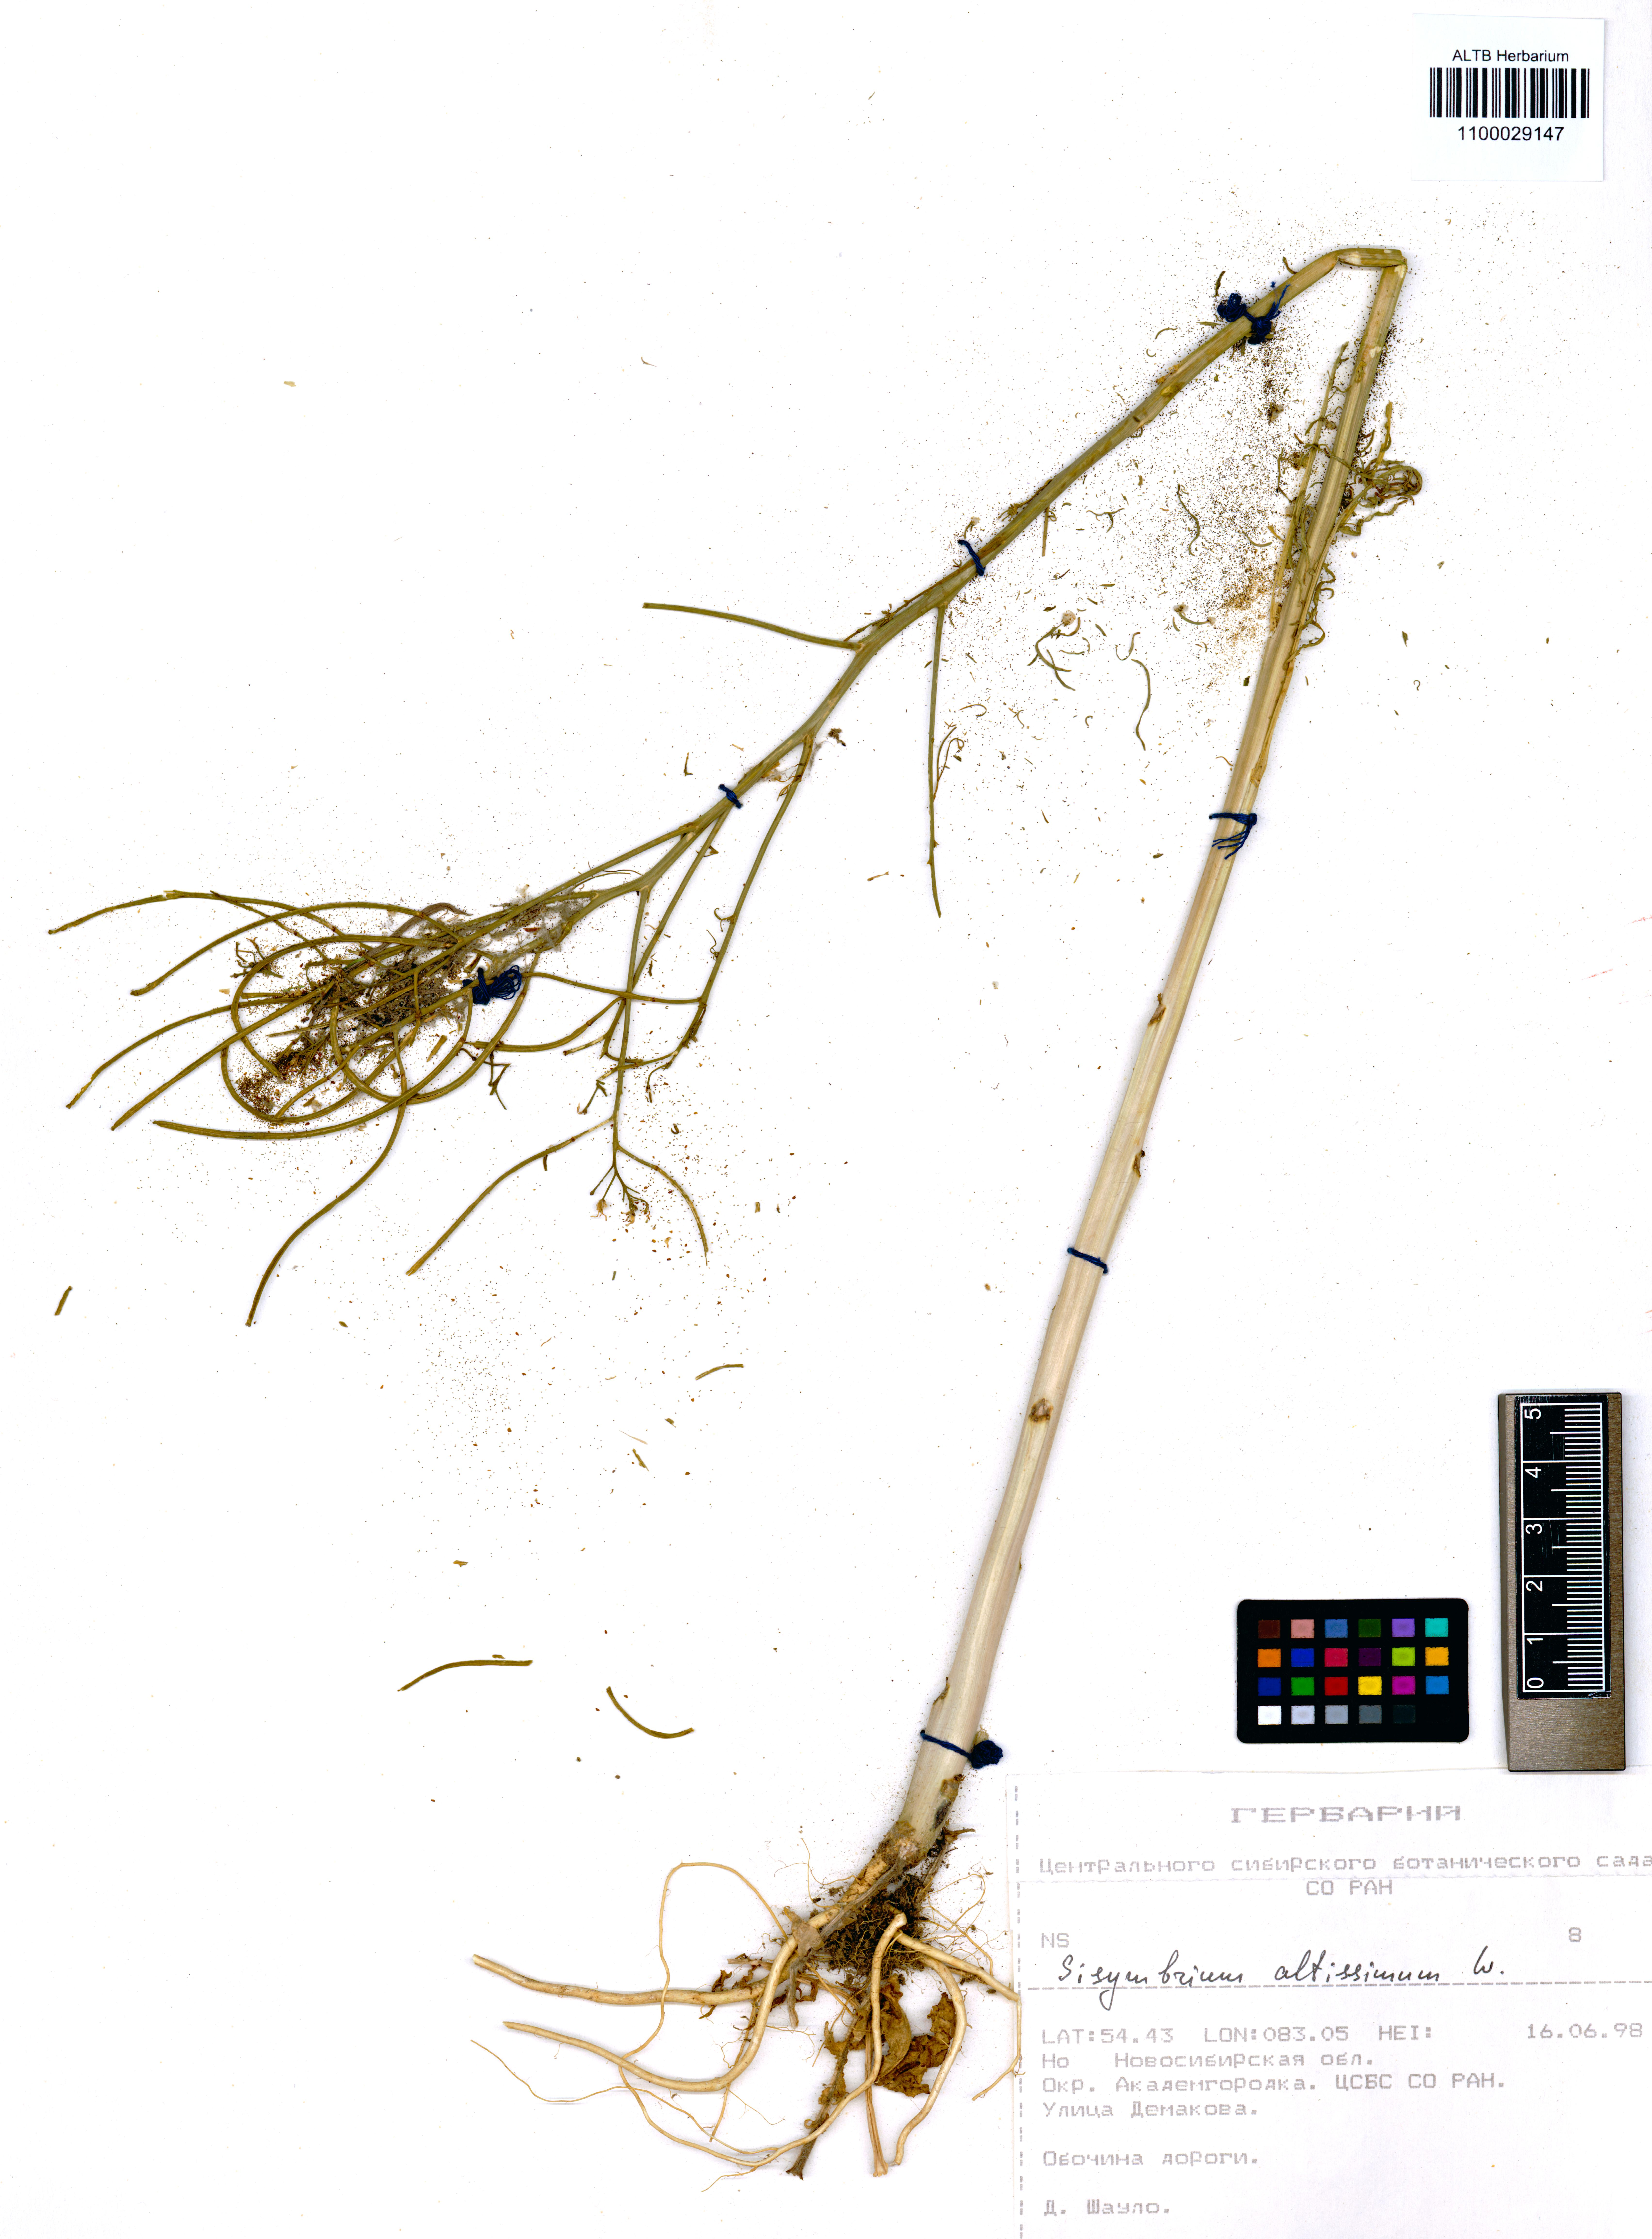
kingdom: Plantae
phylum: Tracheophyta
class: Magnoliopsida
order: Brassicales
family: Brassicaceae
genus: Sisymbrium
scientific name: Sisymbrium altissimum
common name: Tall rocket
